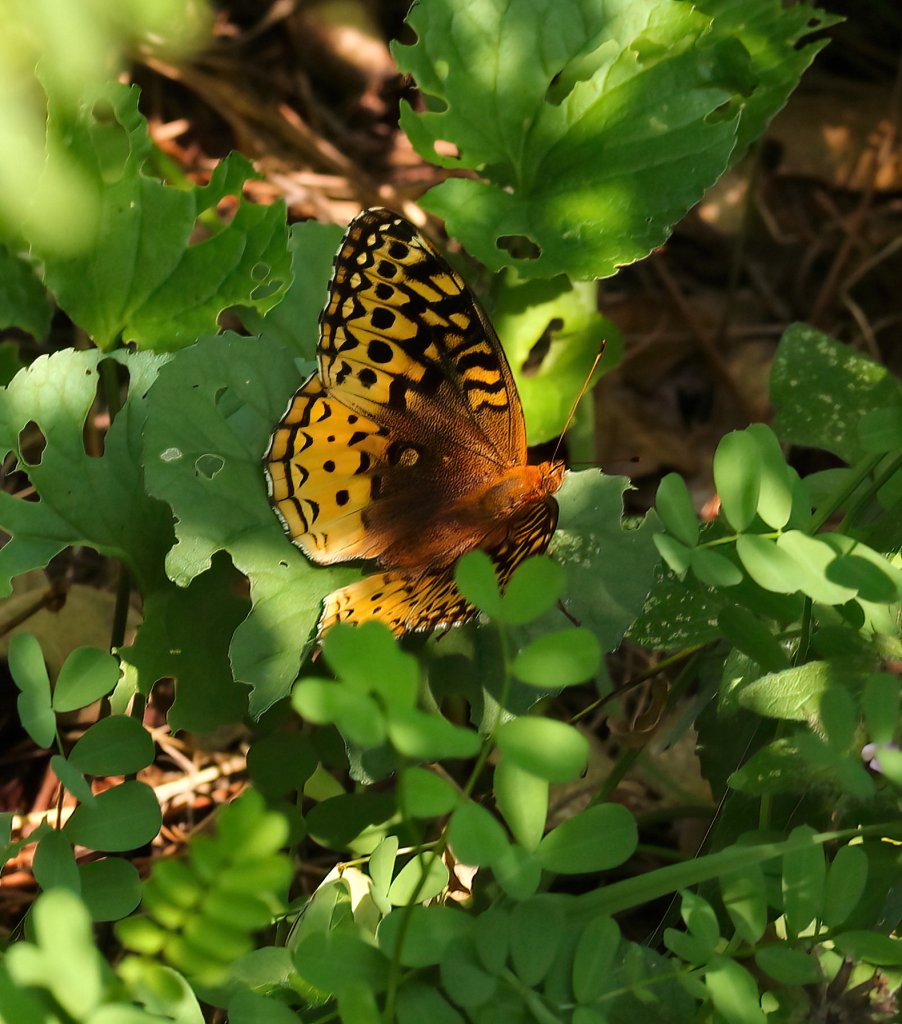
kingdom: Animalia
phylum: Arthropoda
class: Insecta
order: Lepidoptera
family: Nymphalidae
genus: Speyeria
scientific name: Speyeria cybele
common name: Great Spangled Fritillary
